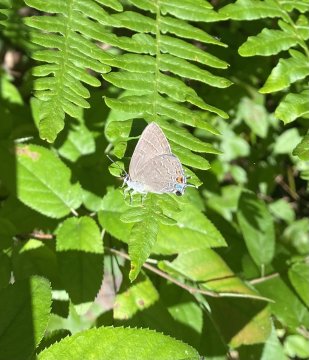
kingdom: Animalia
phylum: Arthropoda
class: Insecta
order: Lepidoptera
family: Lycaenidae
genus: Satyrium
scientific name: Satyrium calanus
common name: Banded Hairstreak
